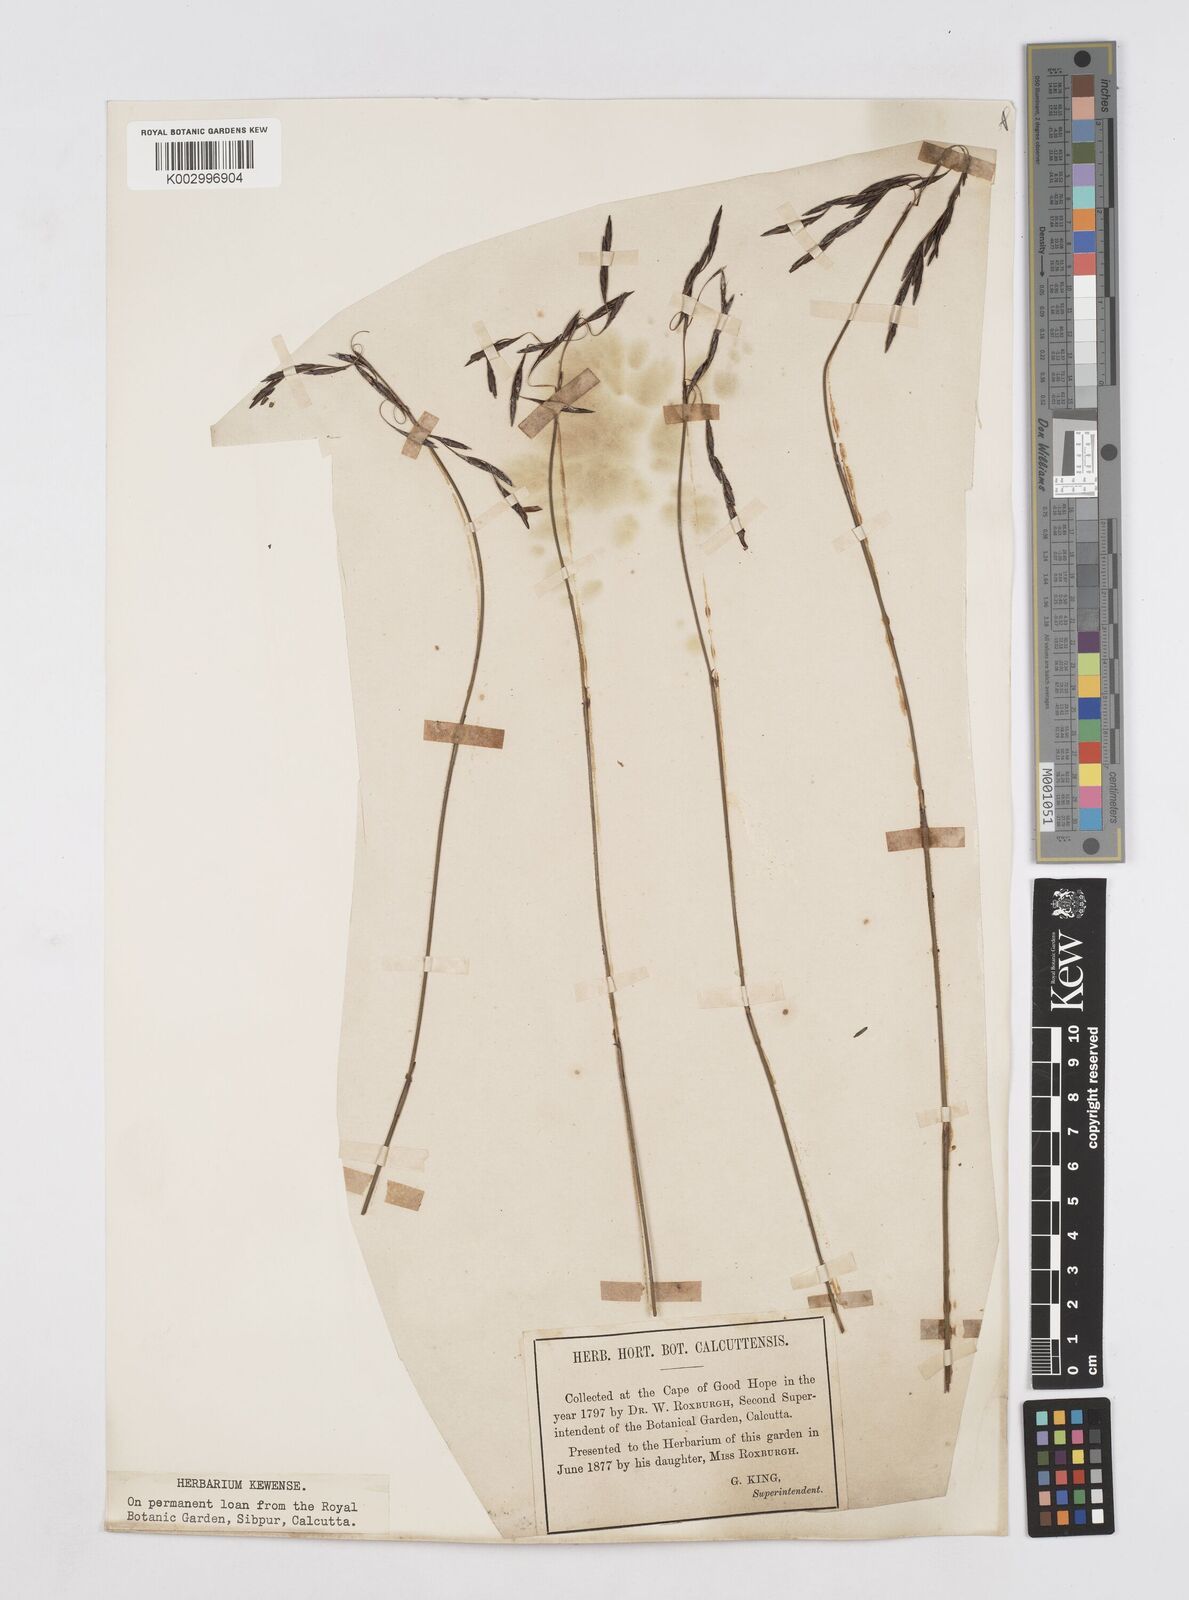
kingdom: Plantae
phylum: Tracheophyta
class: Liliopsida
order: Poales
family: Restionaceae
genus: Thamnochortus
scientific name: Thamnochortus lucens
